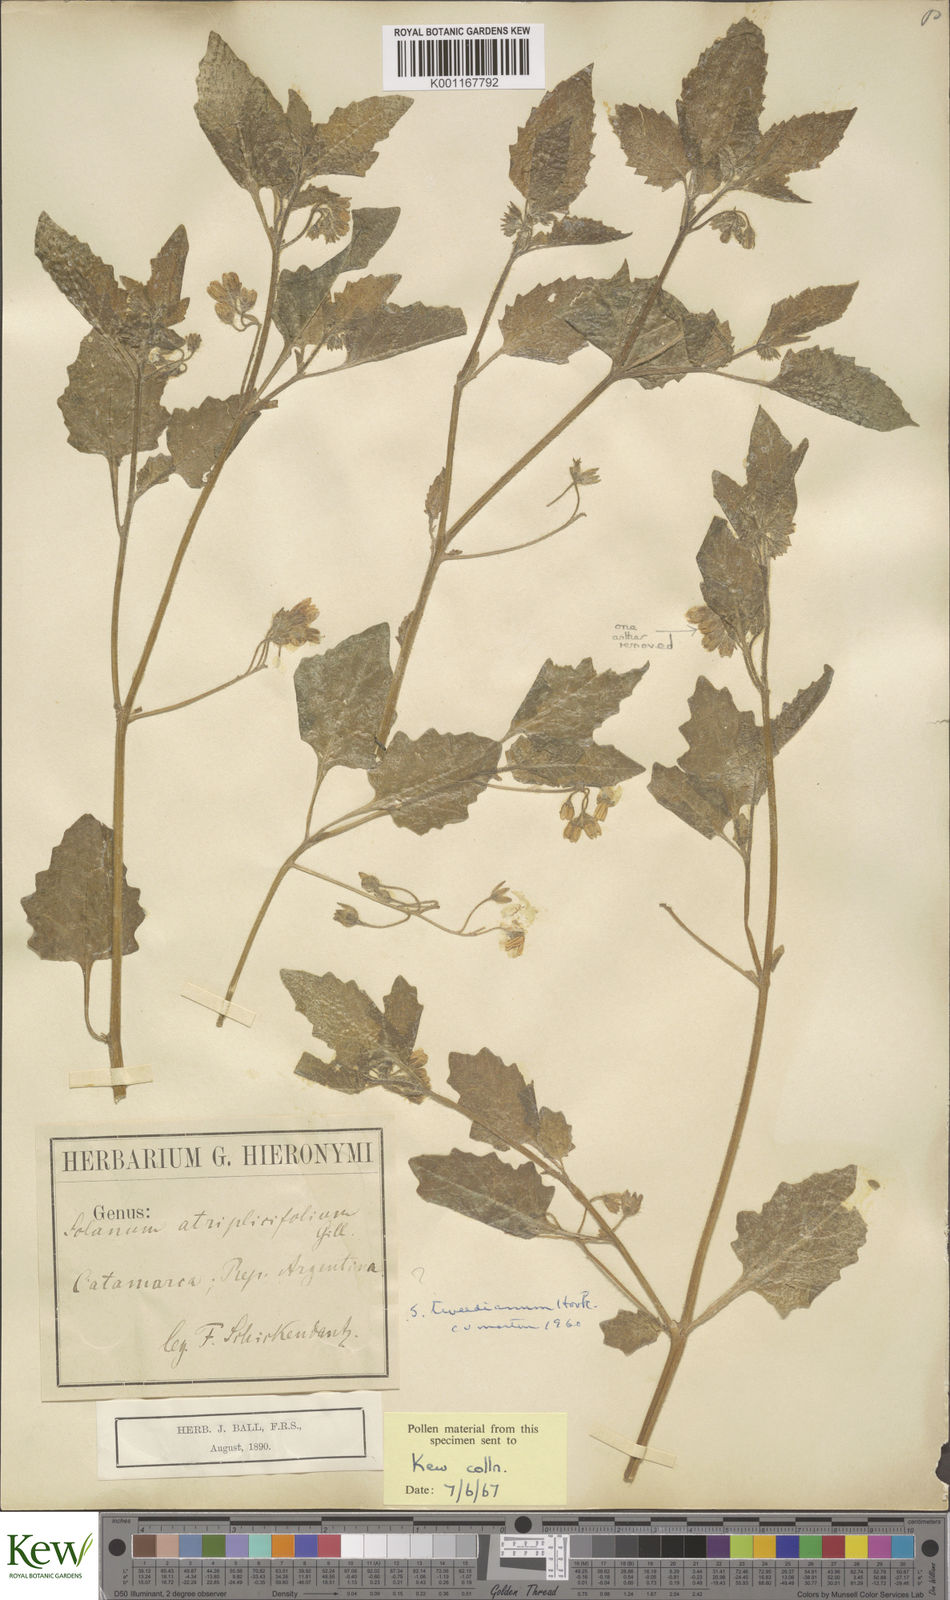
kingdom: Plantae
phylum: Tracheophyta
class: Magnoliopsida
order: Solanales
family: Solanaceae
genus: Solanum
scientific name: Solanum
